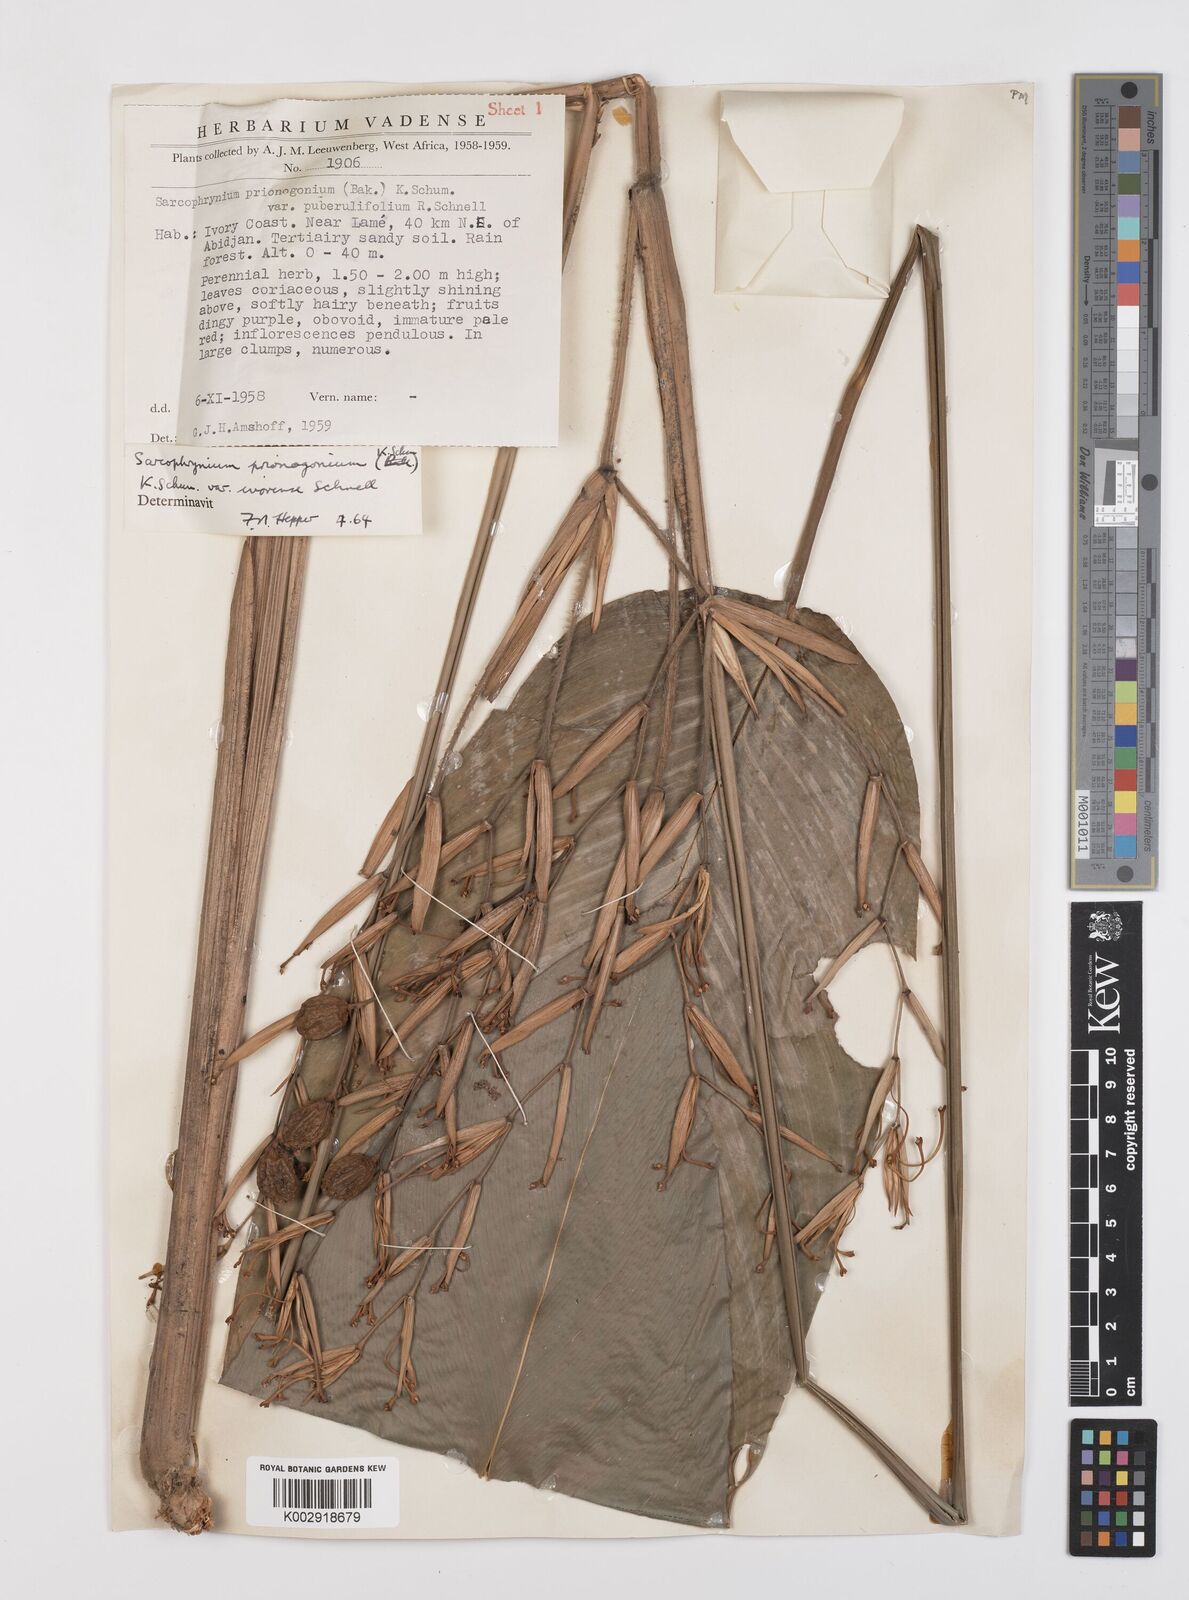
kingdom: Plantae
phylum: Tracheophyta
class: Liliopsida
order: Zingiberales
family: Marantaceae
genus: Sarcophrynium
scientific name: Sarcophrynium prionogonium
